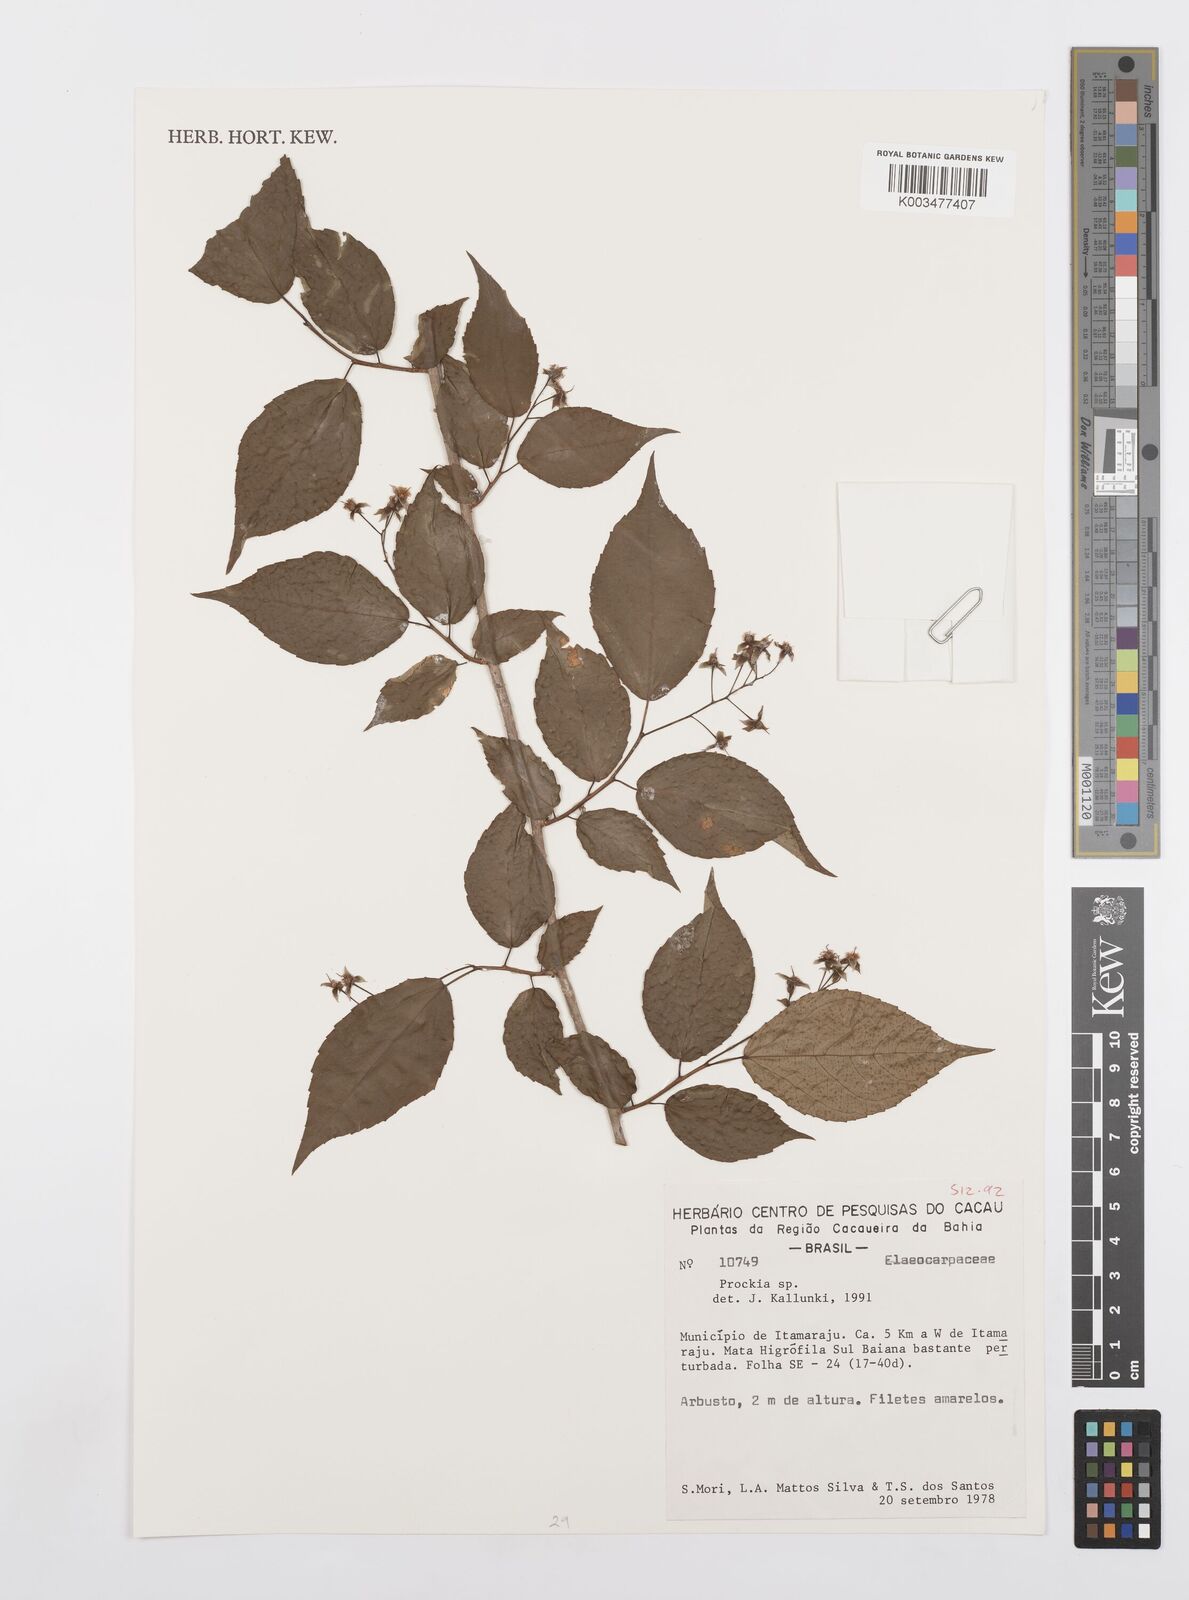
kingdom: Plantae
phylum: Tracheophyta
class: Magnoliopsida
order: Malpighiales
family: Salicaceae
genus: Prockia
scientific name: Prockia
